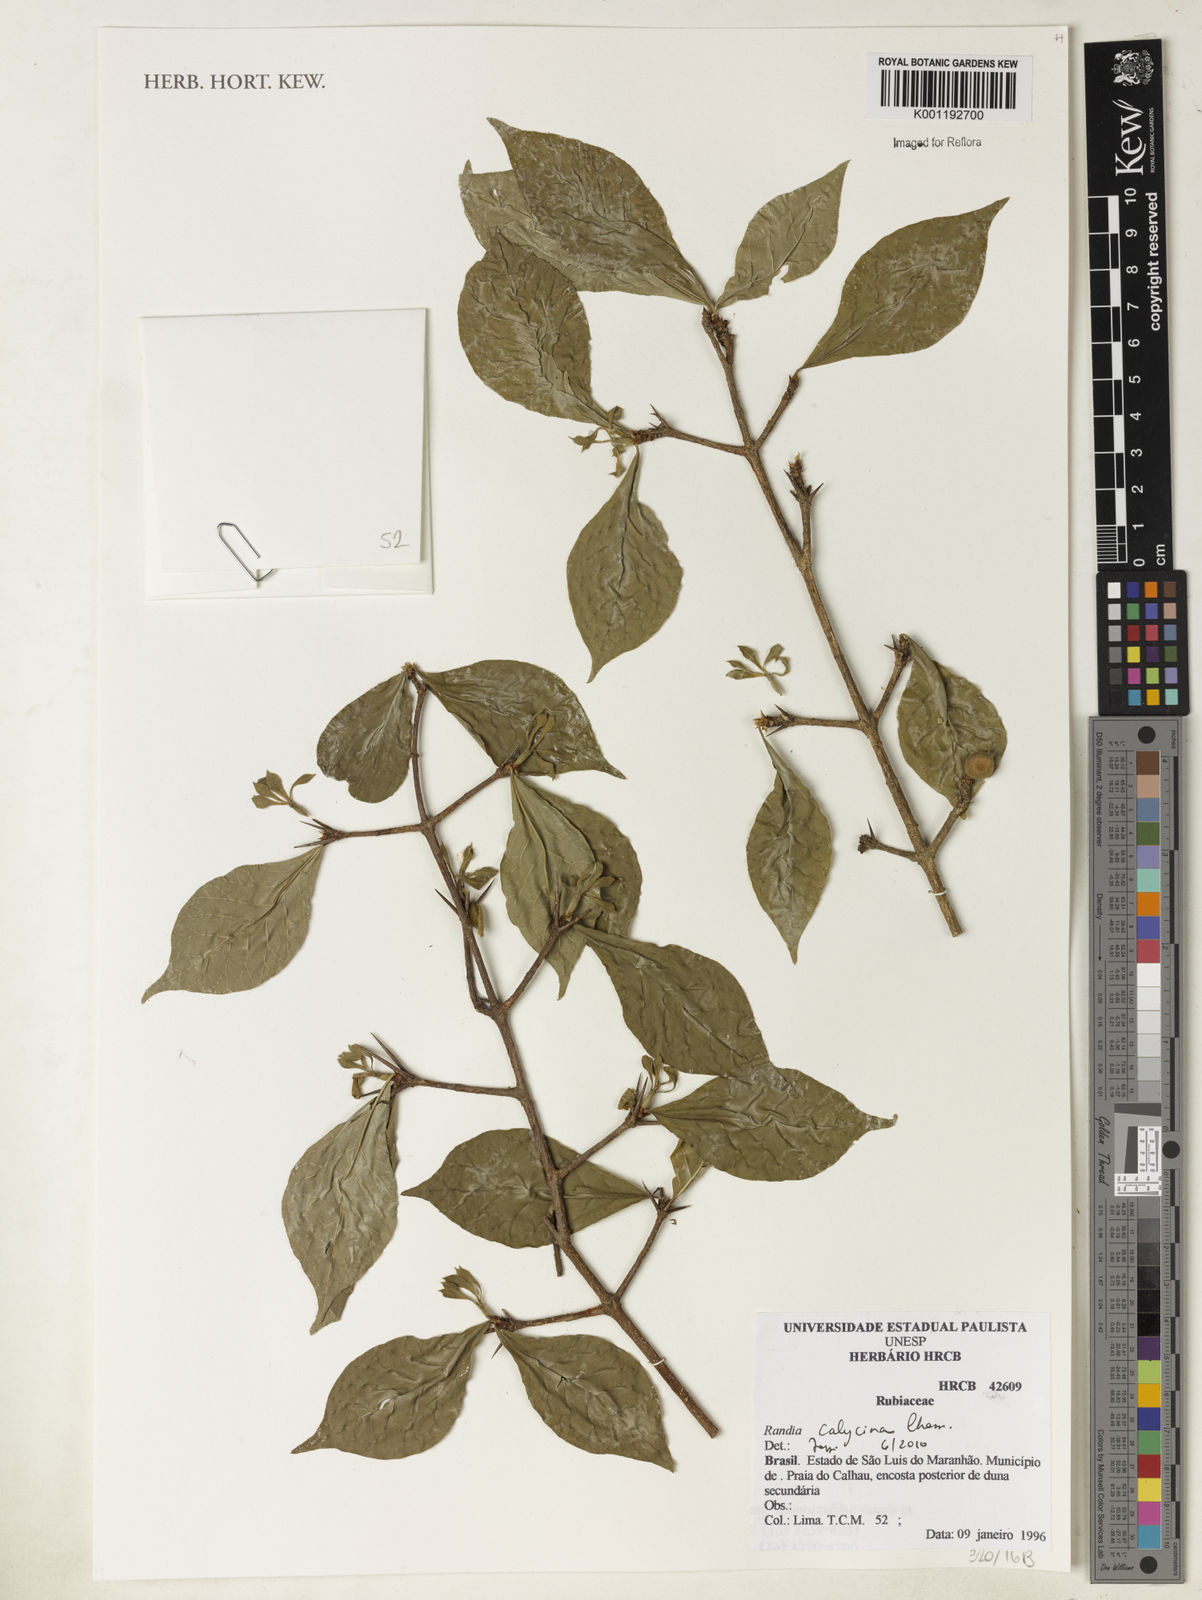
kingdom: Plantae
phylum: Tracheophyta
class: Magnoliopsida
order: Gentianales
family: Rubiaceae
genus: Randia
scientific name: Randia calycina
